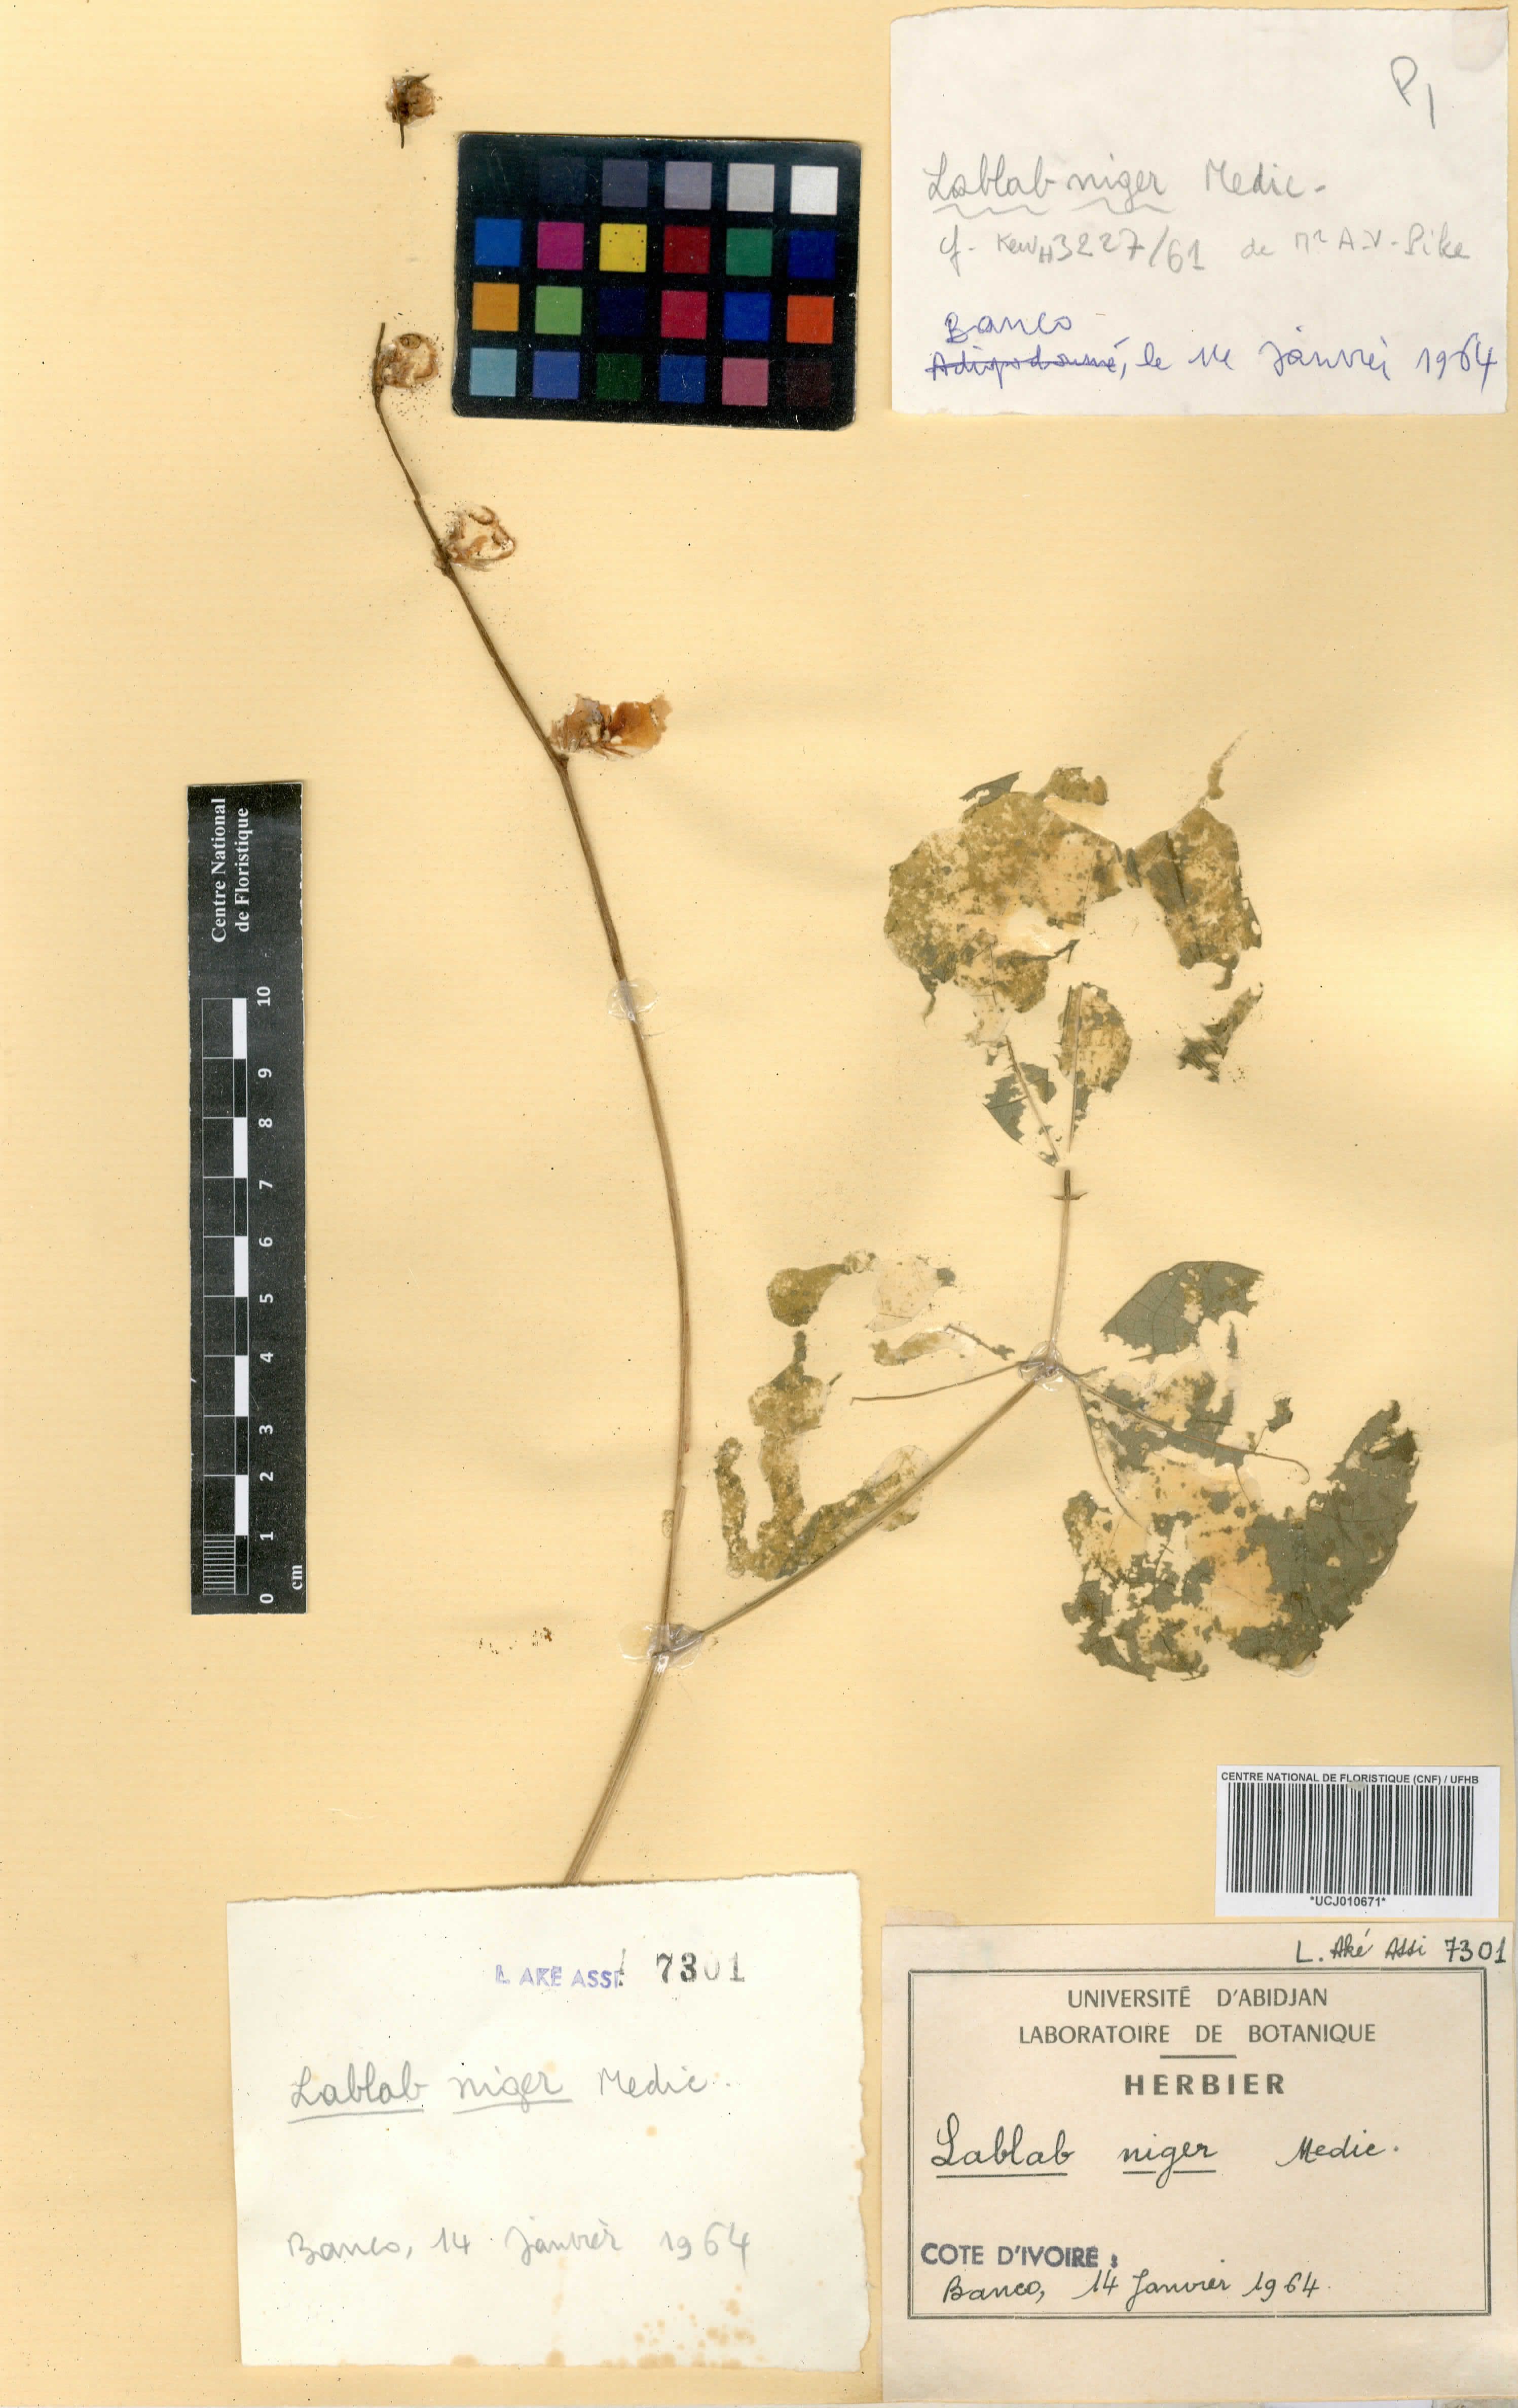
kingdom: Plantae
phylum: Tracheophyta
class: Magnoliopsida
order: Fabales
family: Fabaceae
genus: Lablab
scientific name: Lablab purpureus
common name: Lablab-bean
